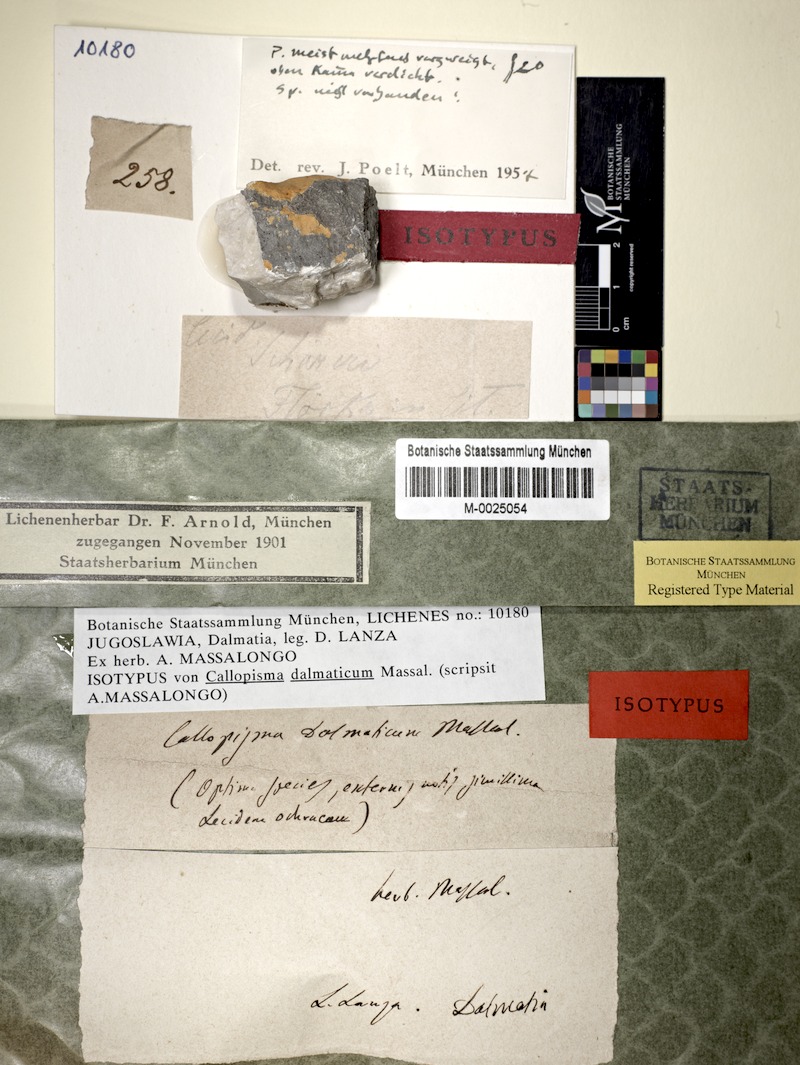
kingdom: Fungi
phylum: Ascomycota
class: Lecanoromycetes
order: Teloschistales
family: Teloschistaceae
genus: Variospora
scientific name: Variospora dalmatica
